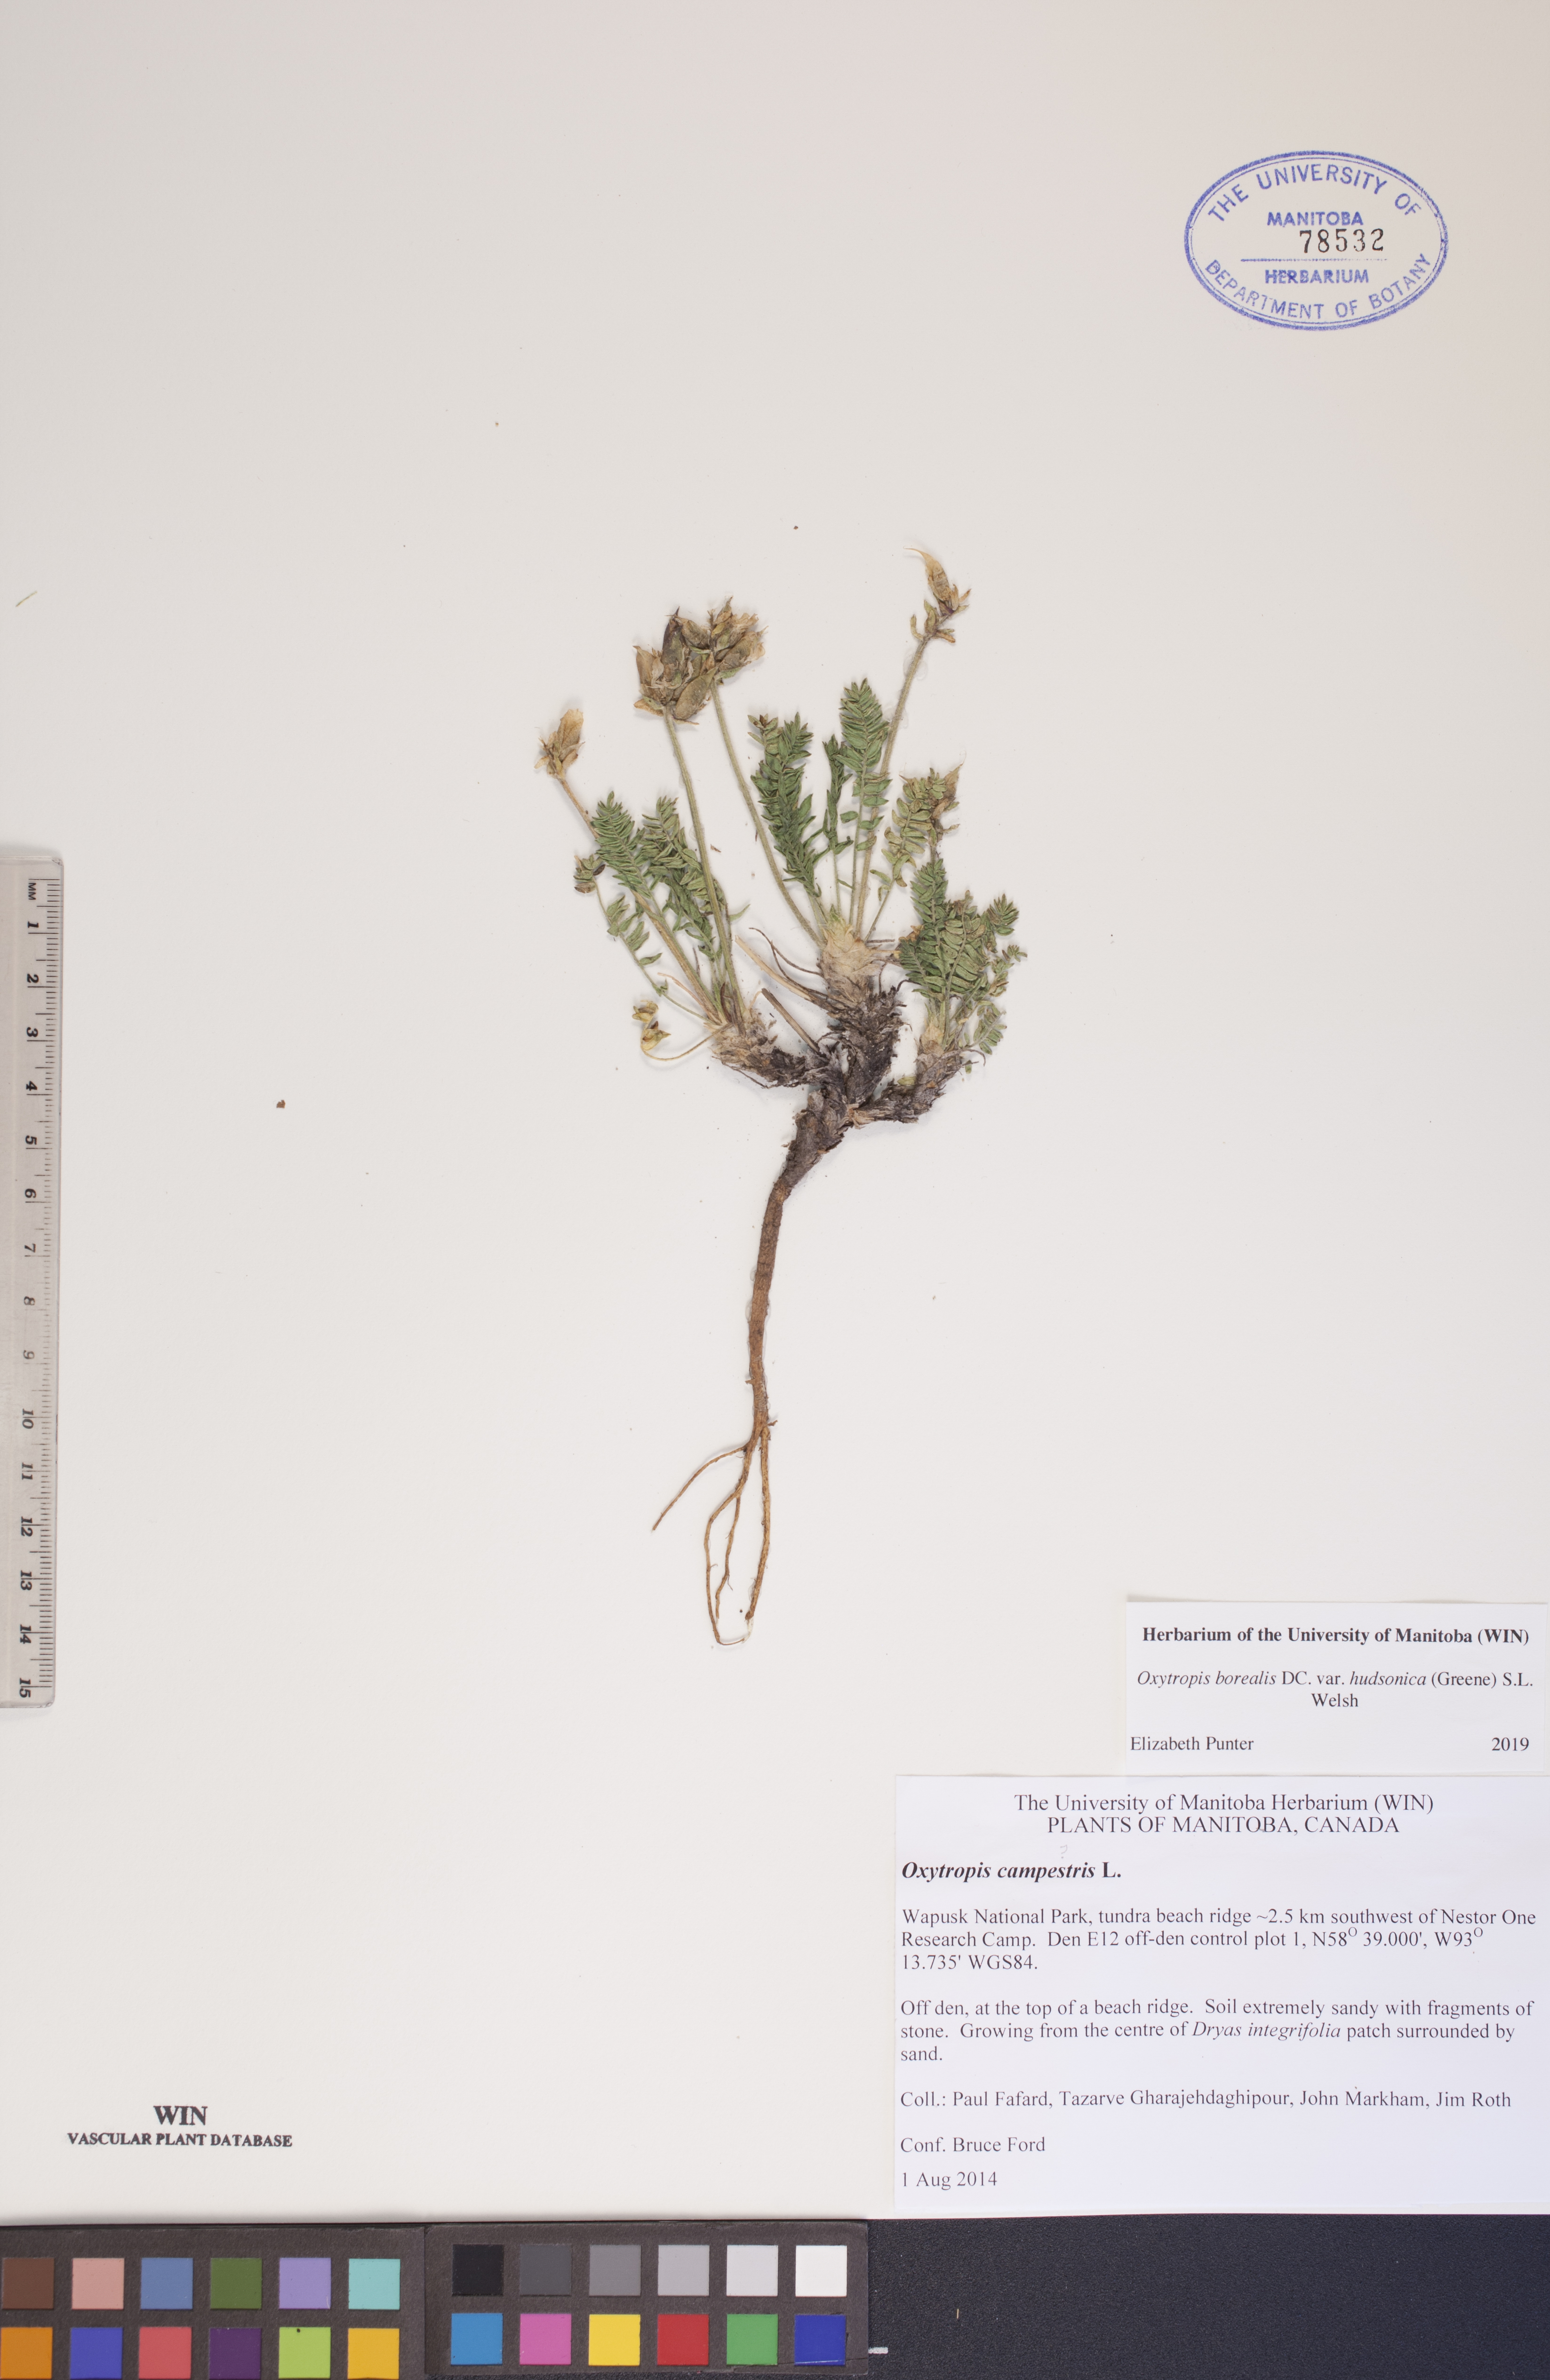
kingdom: Plantae
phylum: Tracheophyta
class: Magnoliopsida
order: Fabales
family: Fabaceae
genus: Oxytropis
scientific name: Oxytropis hudsonica
